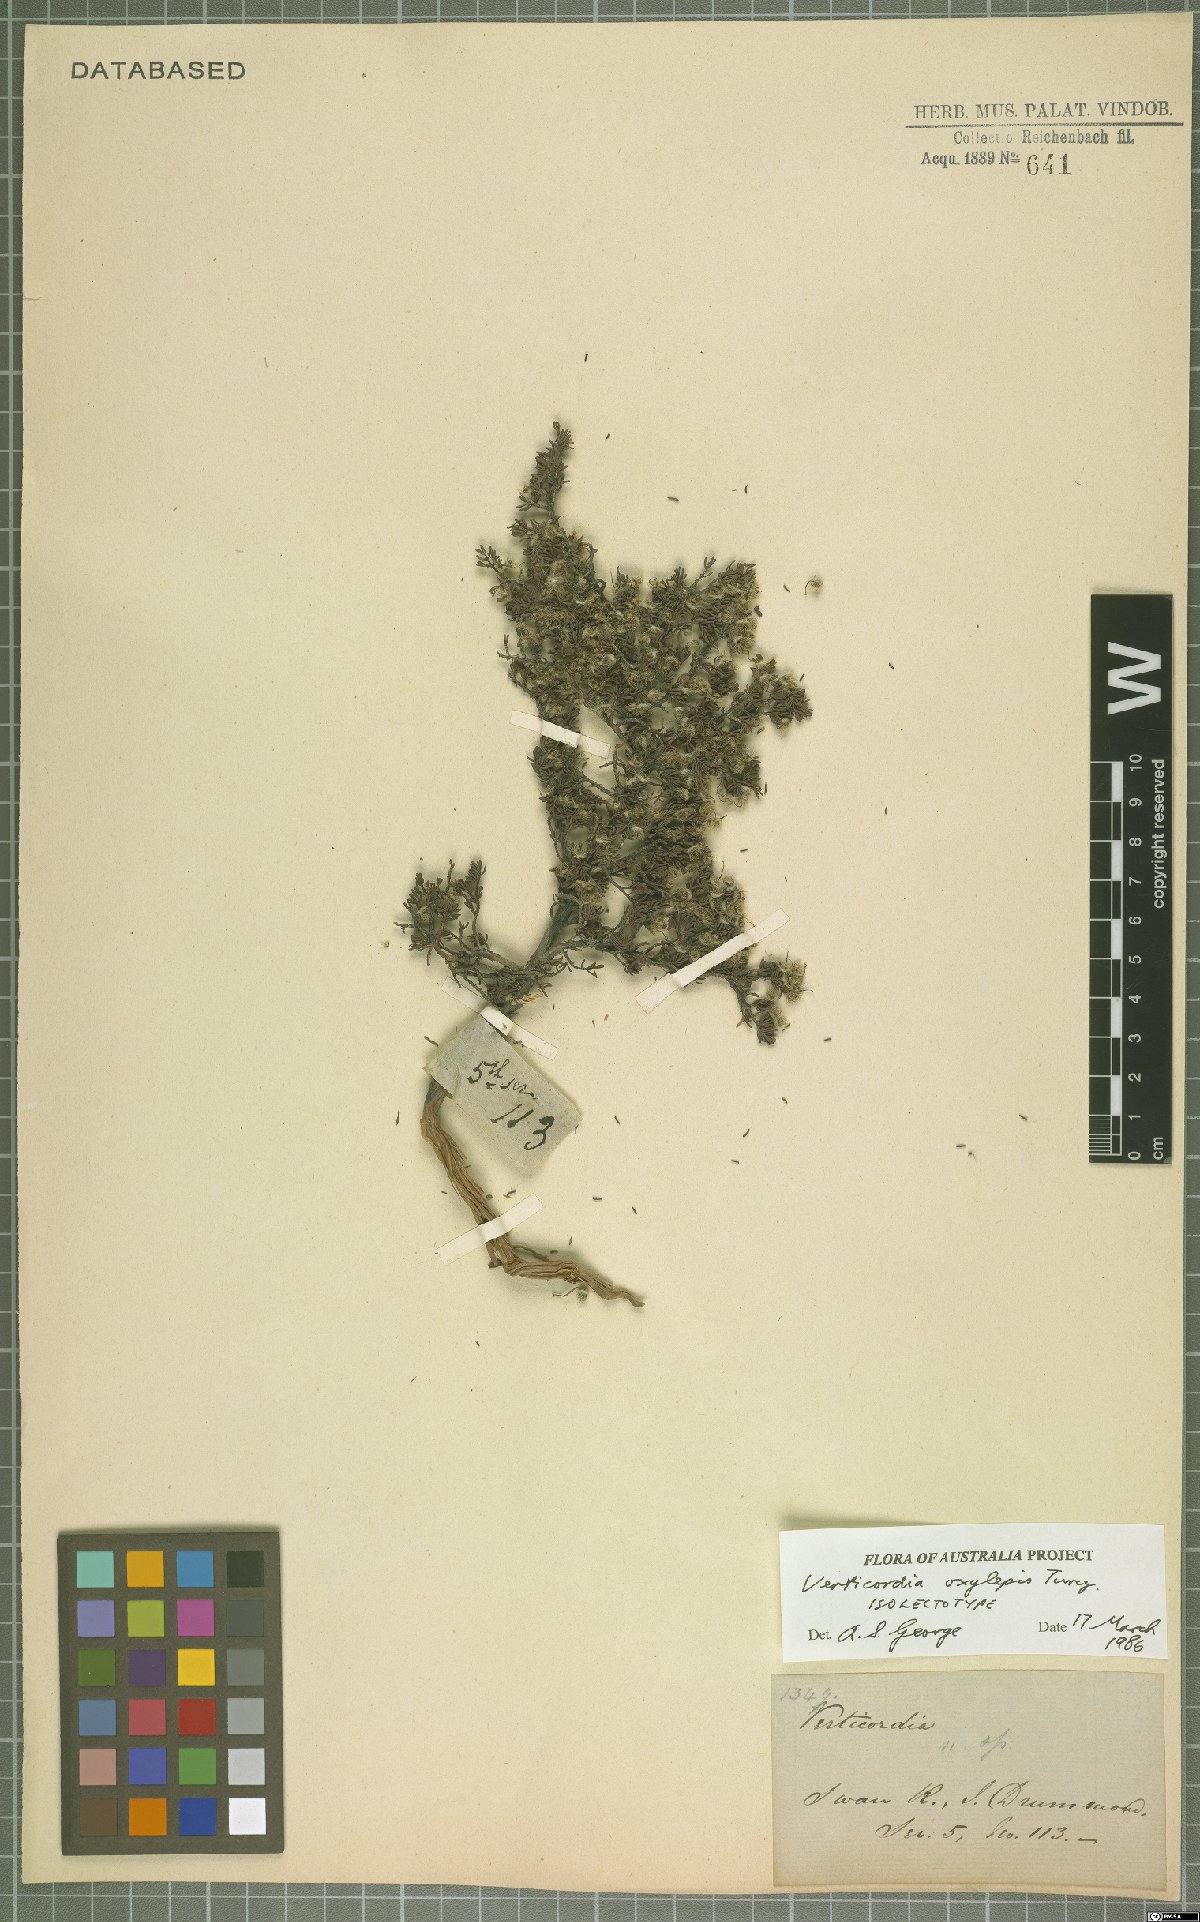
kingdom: Plantae
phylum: Tracheophyta
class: Magnoliopsida
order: Myrtales
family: Myrtaceae
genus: Verticordia
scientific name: Verticordia oxylepis
